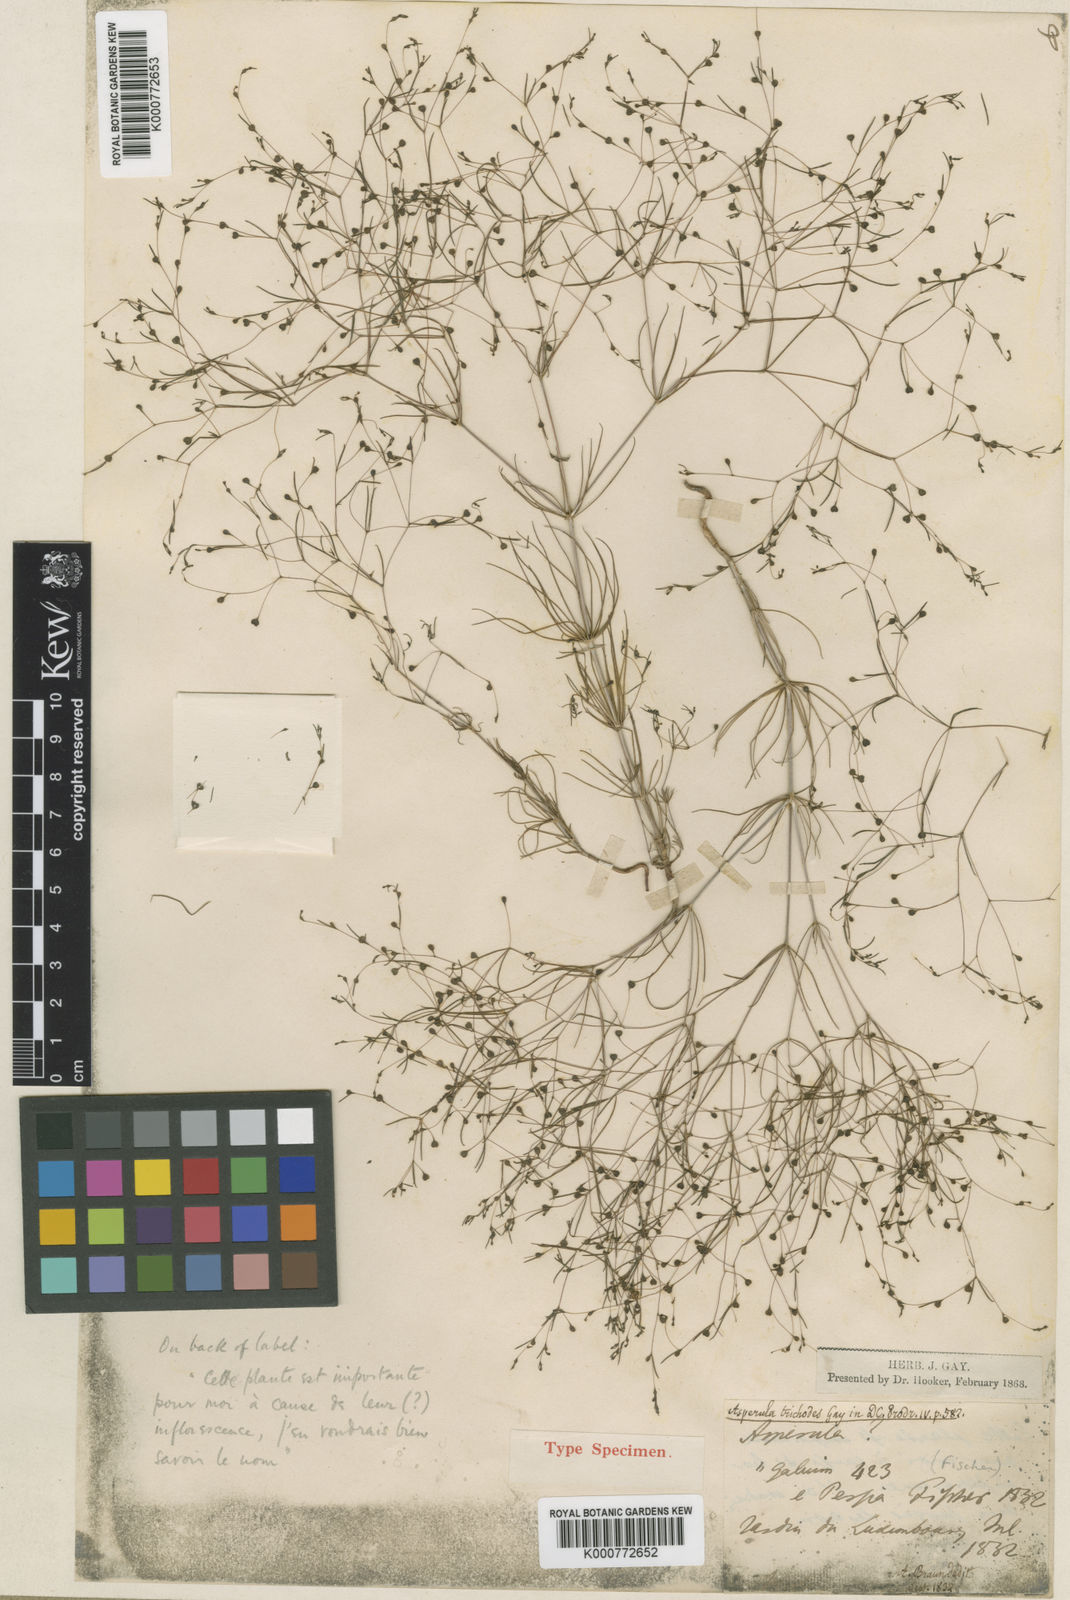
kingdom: Plantae
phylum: Tracheophyta
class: Magnoliopsida
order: Gentianales
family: Rubiaceae
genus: Asperula
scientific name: Asperula
